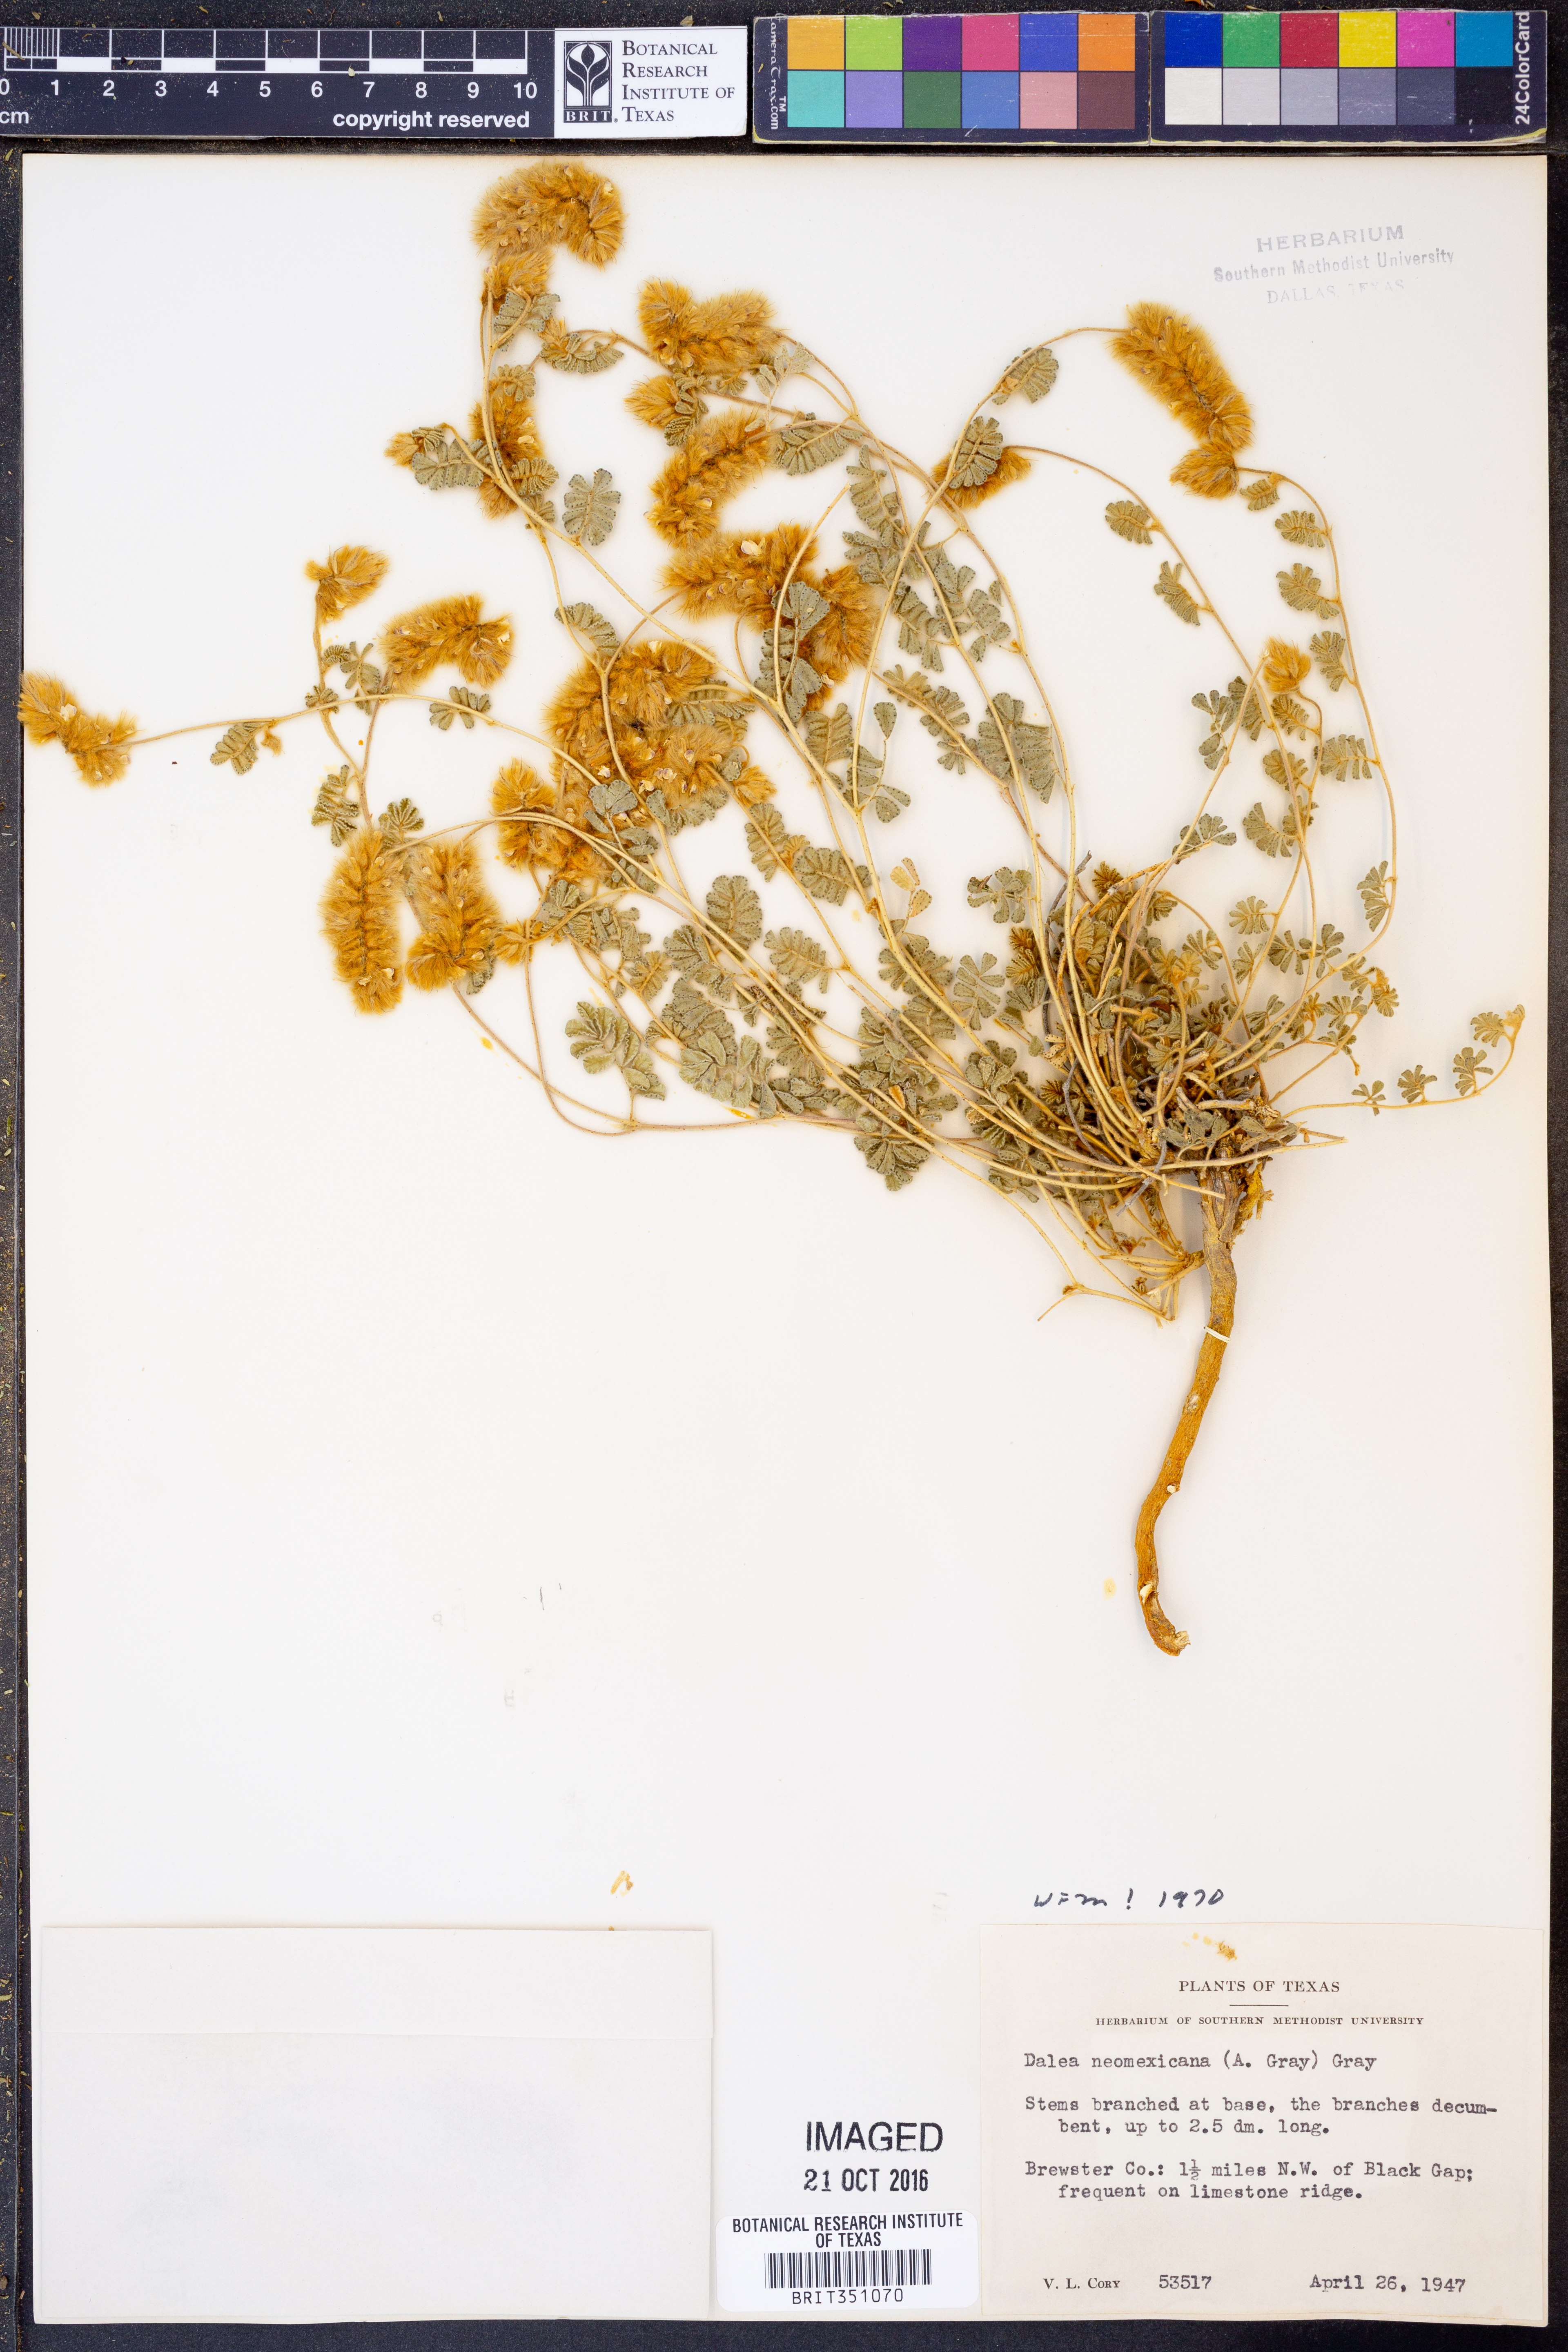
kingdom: Plantae
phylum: Tracheophyta
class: Magnoliopsida
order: Fabales
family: Fabaceae
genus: Dalea
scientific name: Dalea neomexicana
